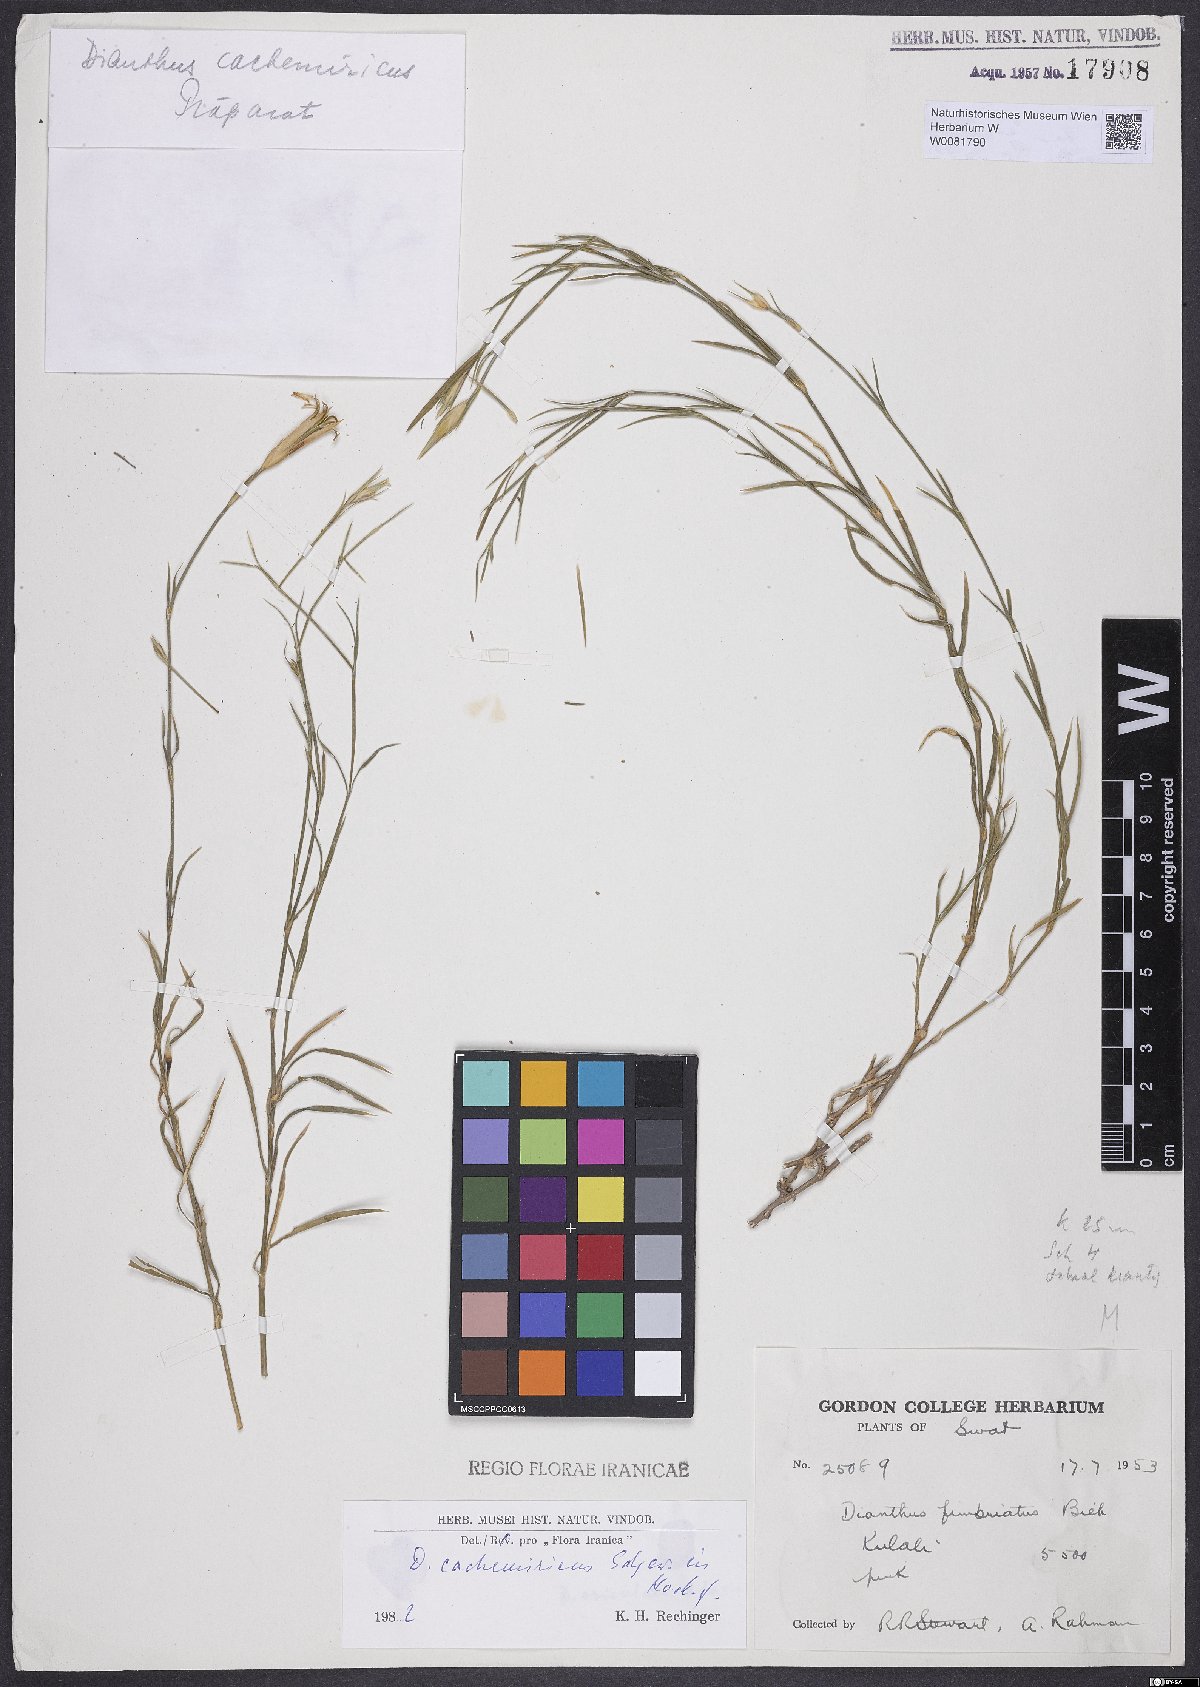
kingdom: Plantae
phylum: Tracheophyta
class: Magnoliopsida
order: Caryophyllales
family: Caryophyllaceae
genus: Dianthus
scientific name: Dianthus cachemiricus
